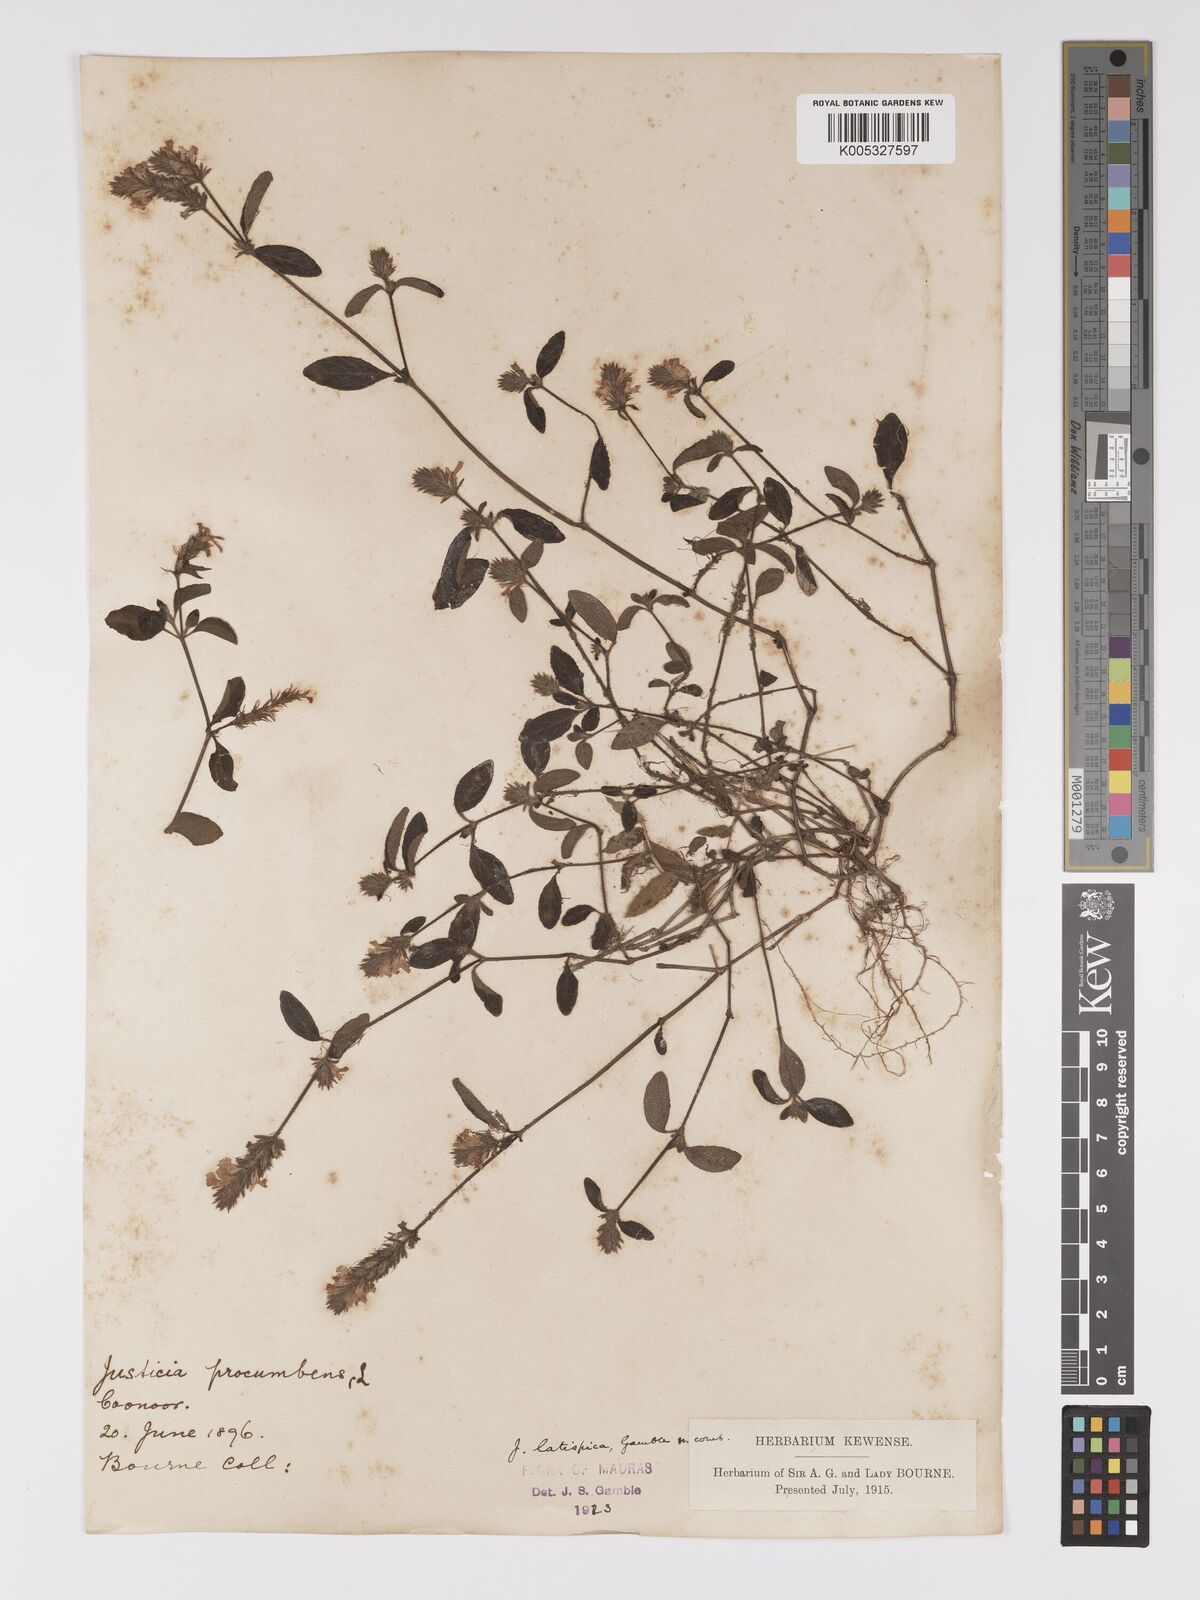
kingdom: Plantae
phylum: Tracheophyta
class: Magnoliopsida
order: Lamiales
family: Acanthaceae
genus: Rostellularia
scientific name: Rostellularia latispica
